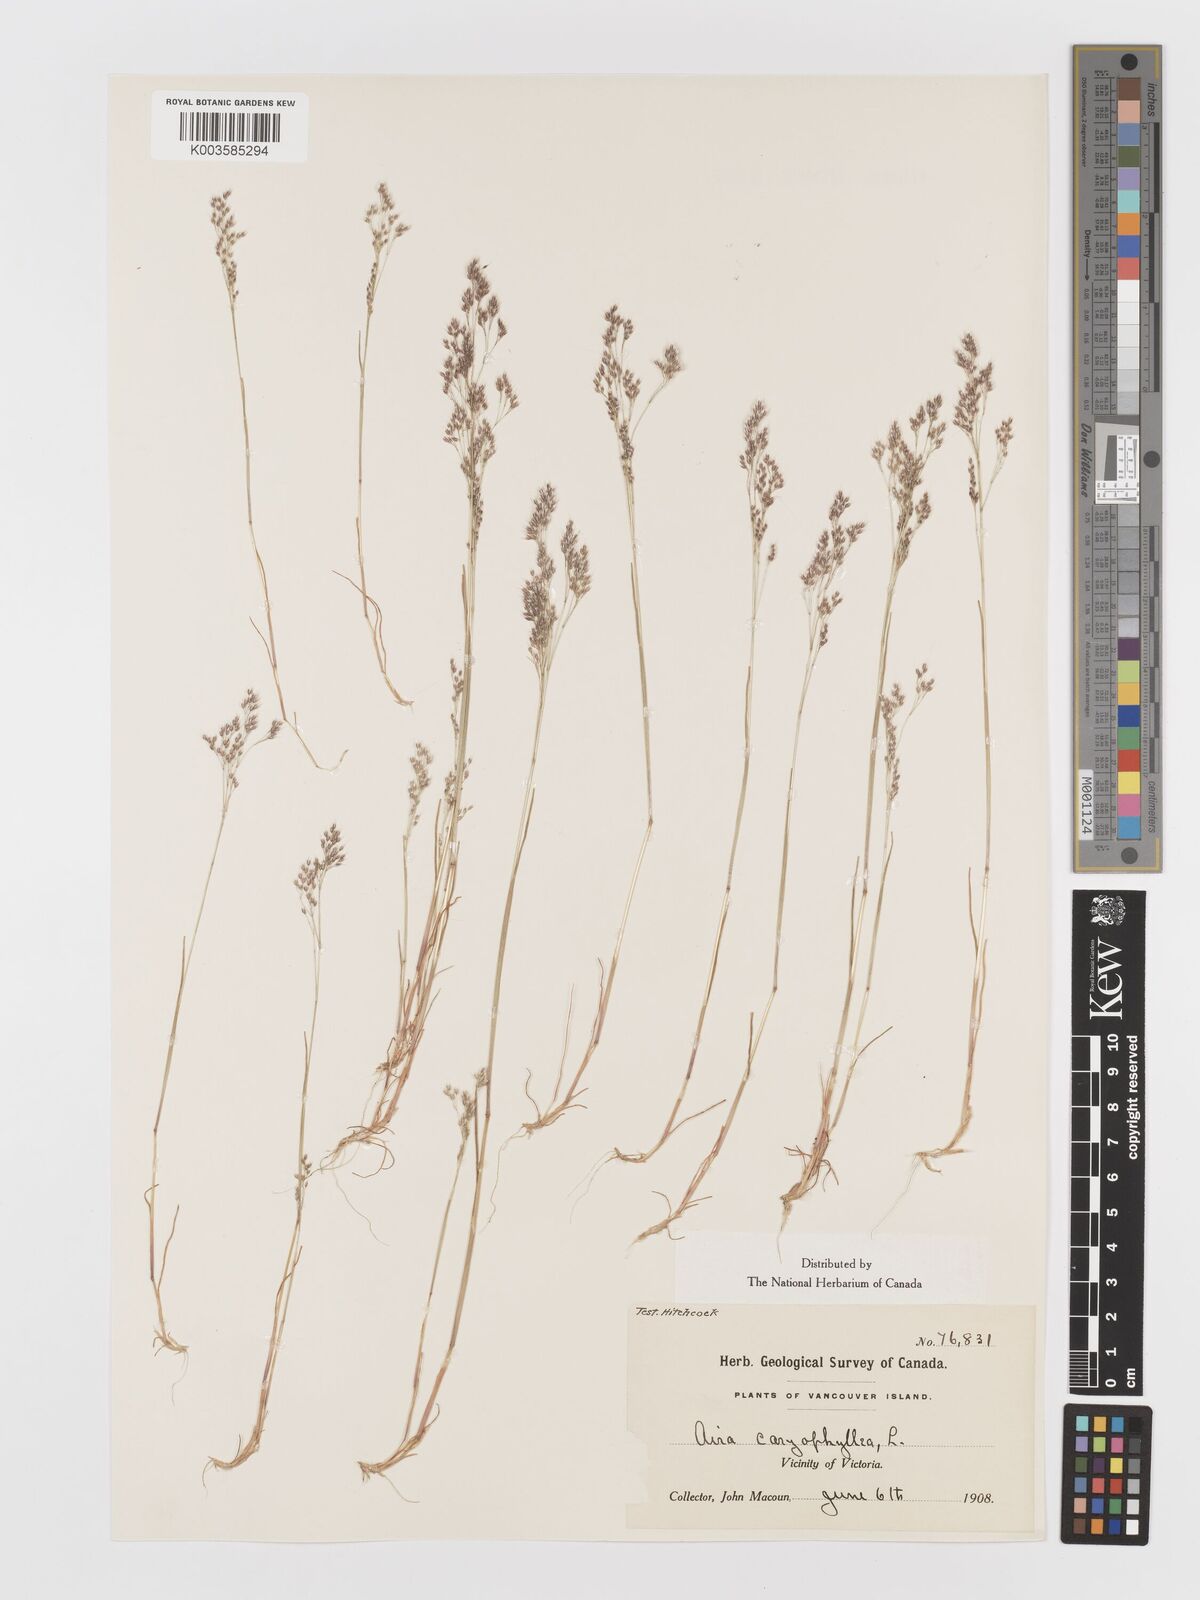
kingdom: Plantae
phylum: Tracheophyta
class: Liliopsida
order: Poales
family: Poaceae
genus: Aira
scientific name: Aira caryophyllea
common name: Silver hairgrass
